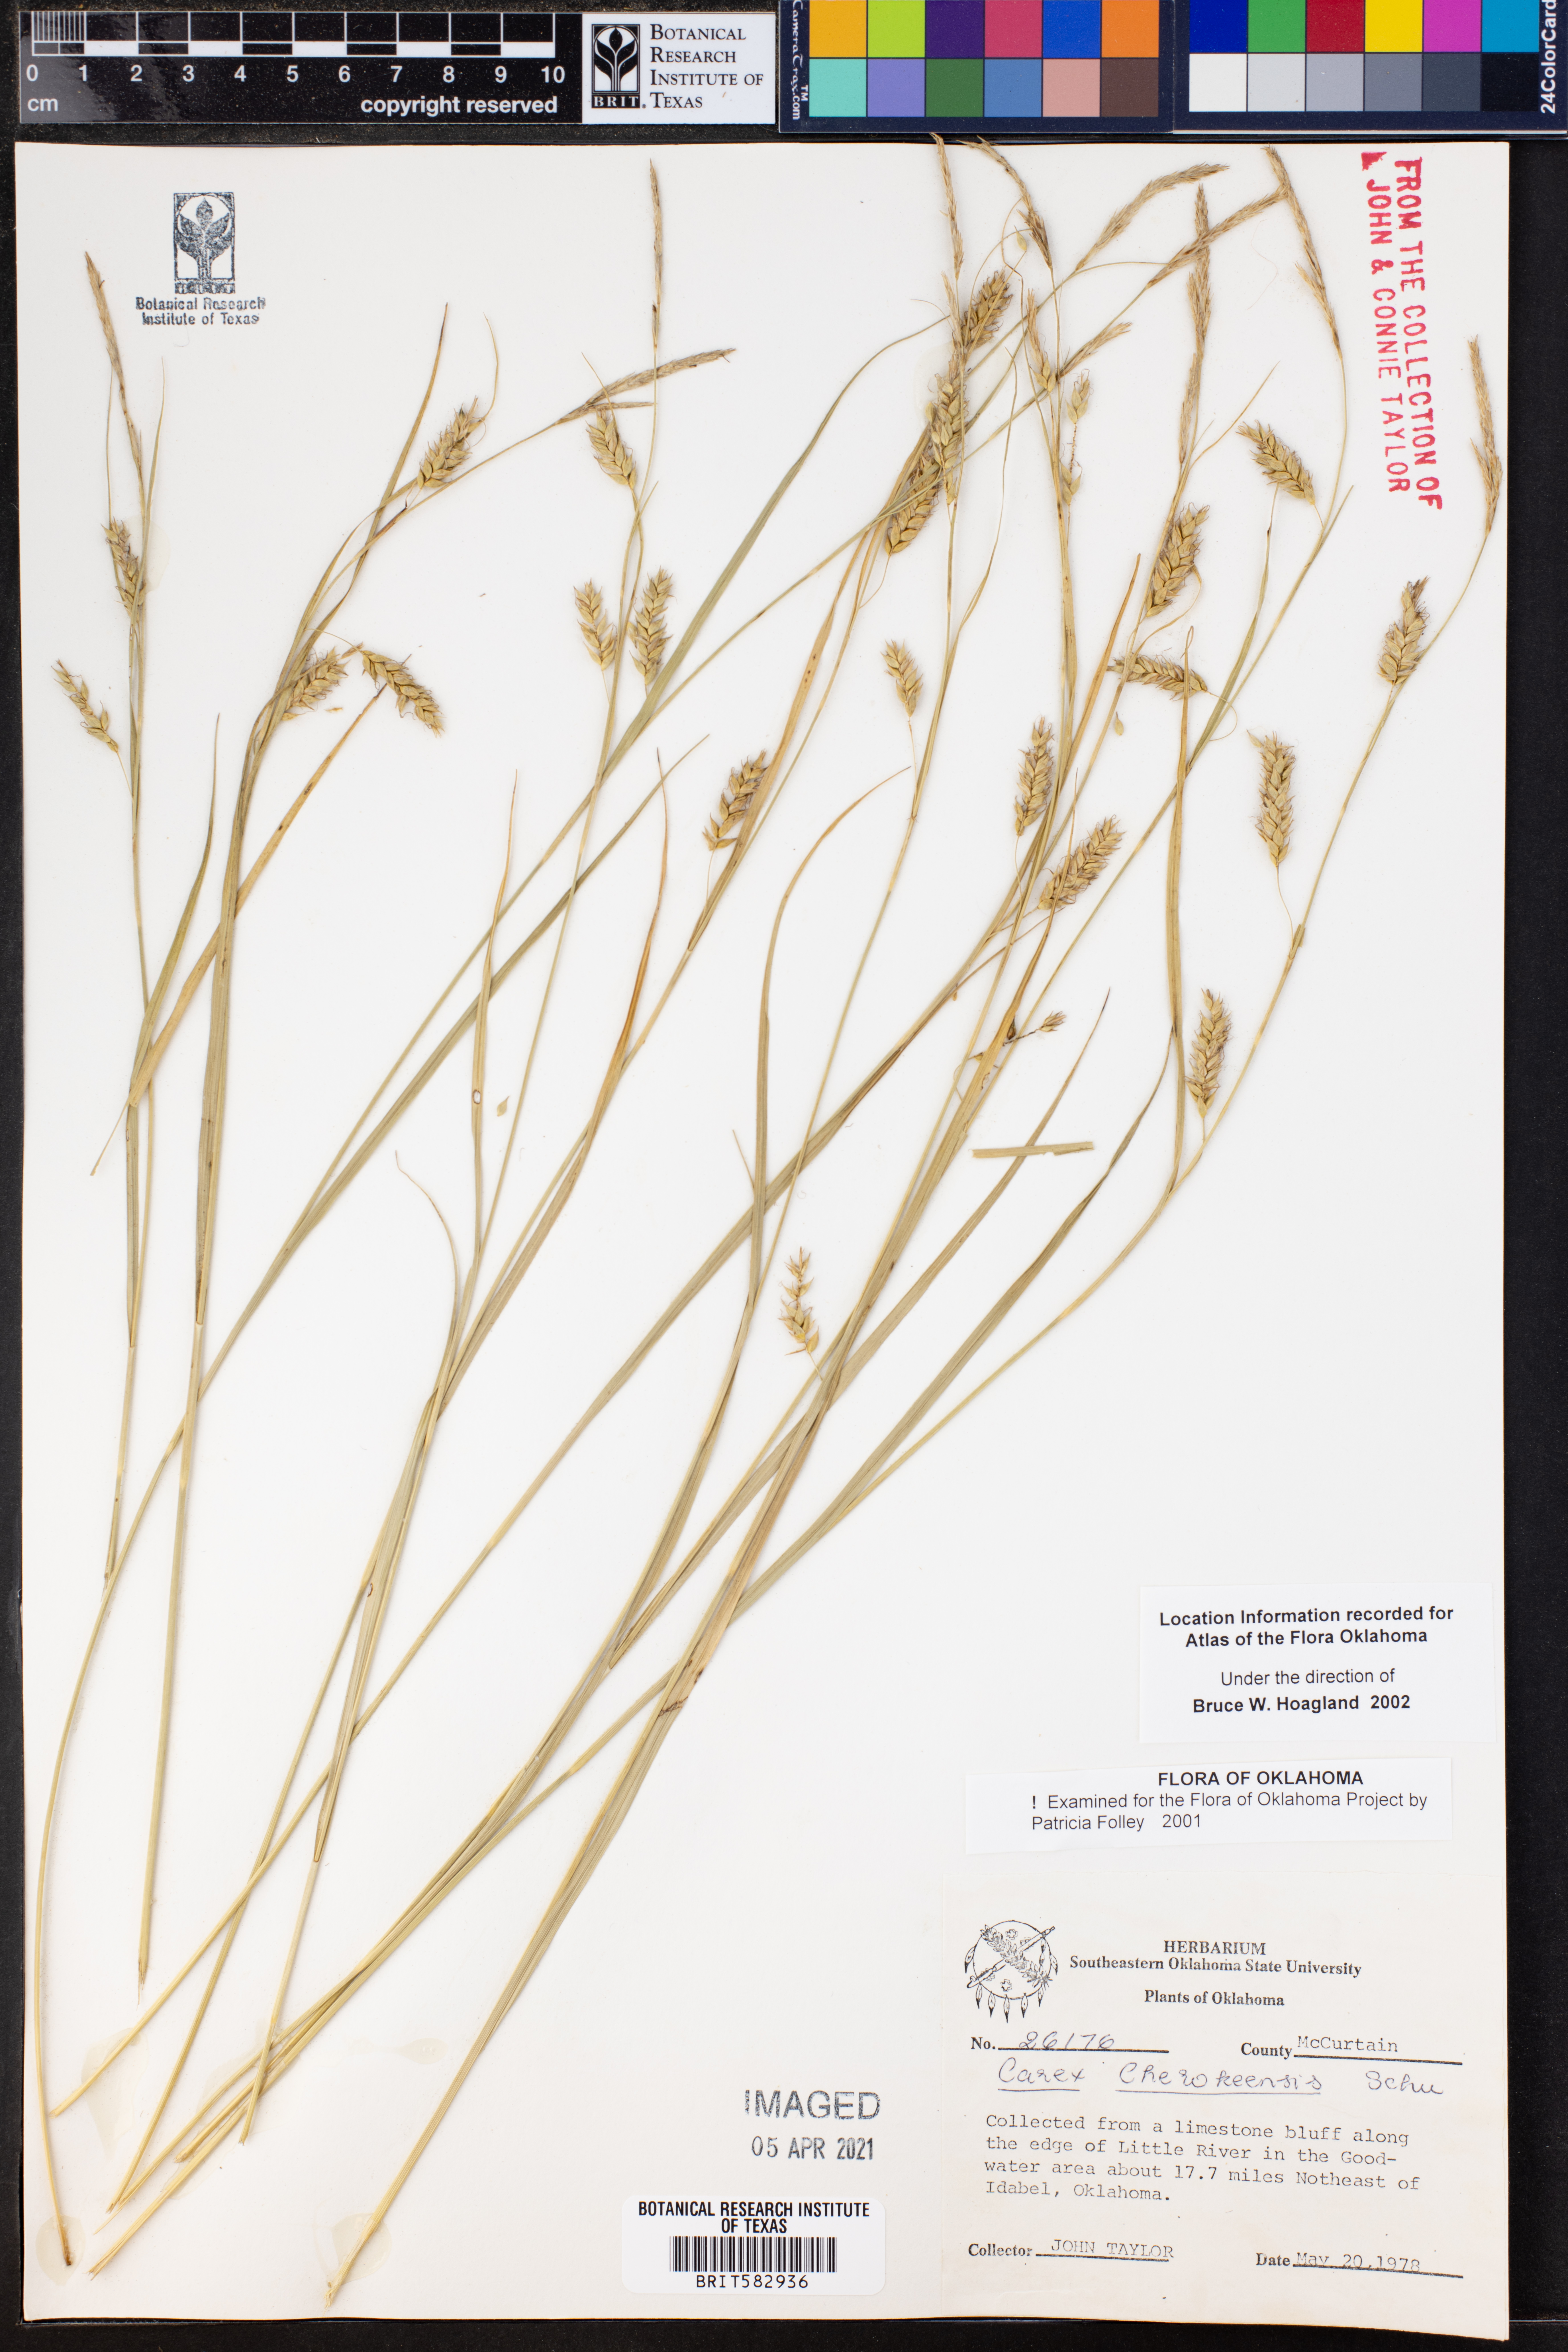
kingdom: Plantae
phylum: Tracheophyta
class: Liliopsida
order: Poales
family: Cyperaceae
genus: Carex
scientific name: Carex cherokeensis
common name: Cherokee sedge
